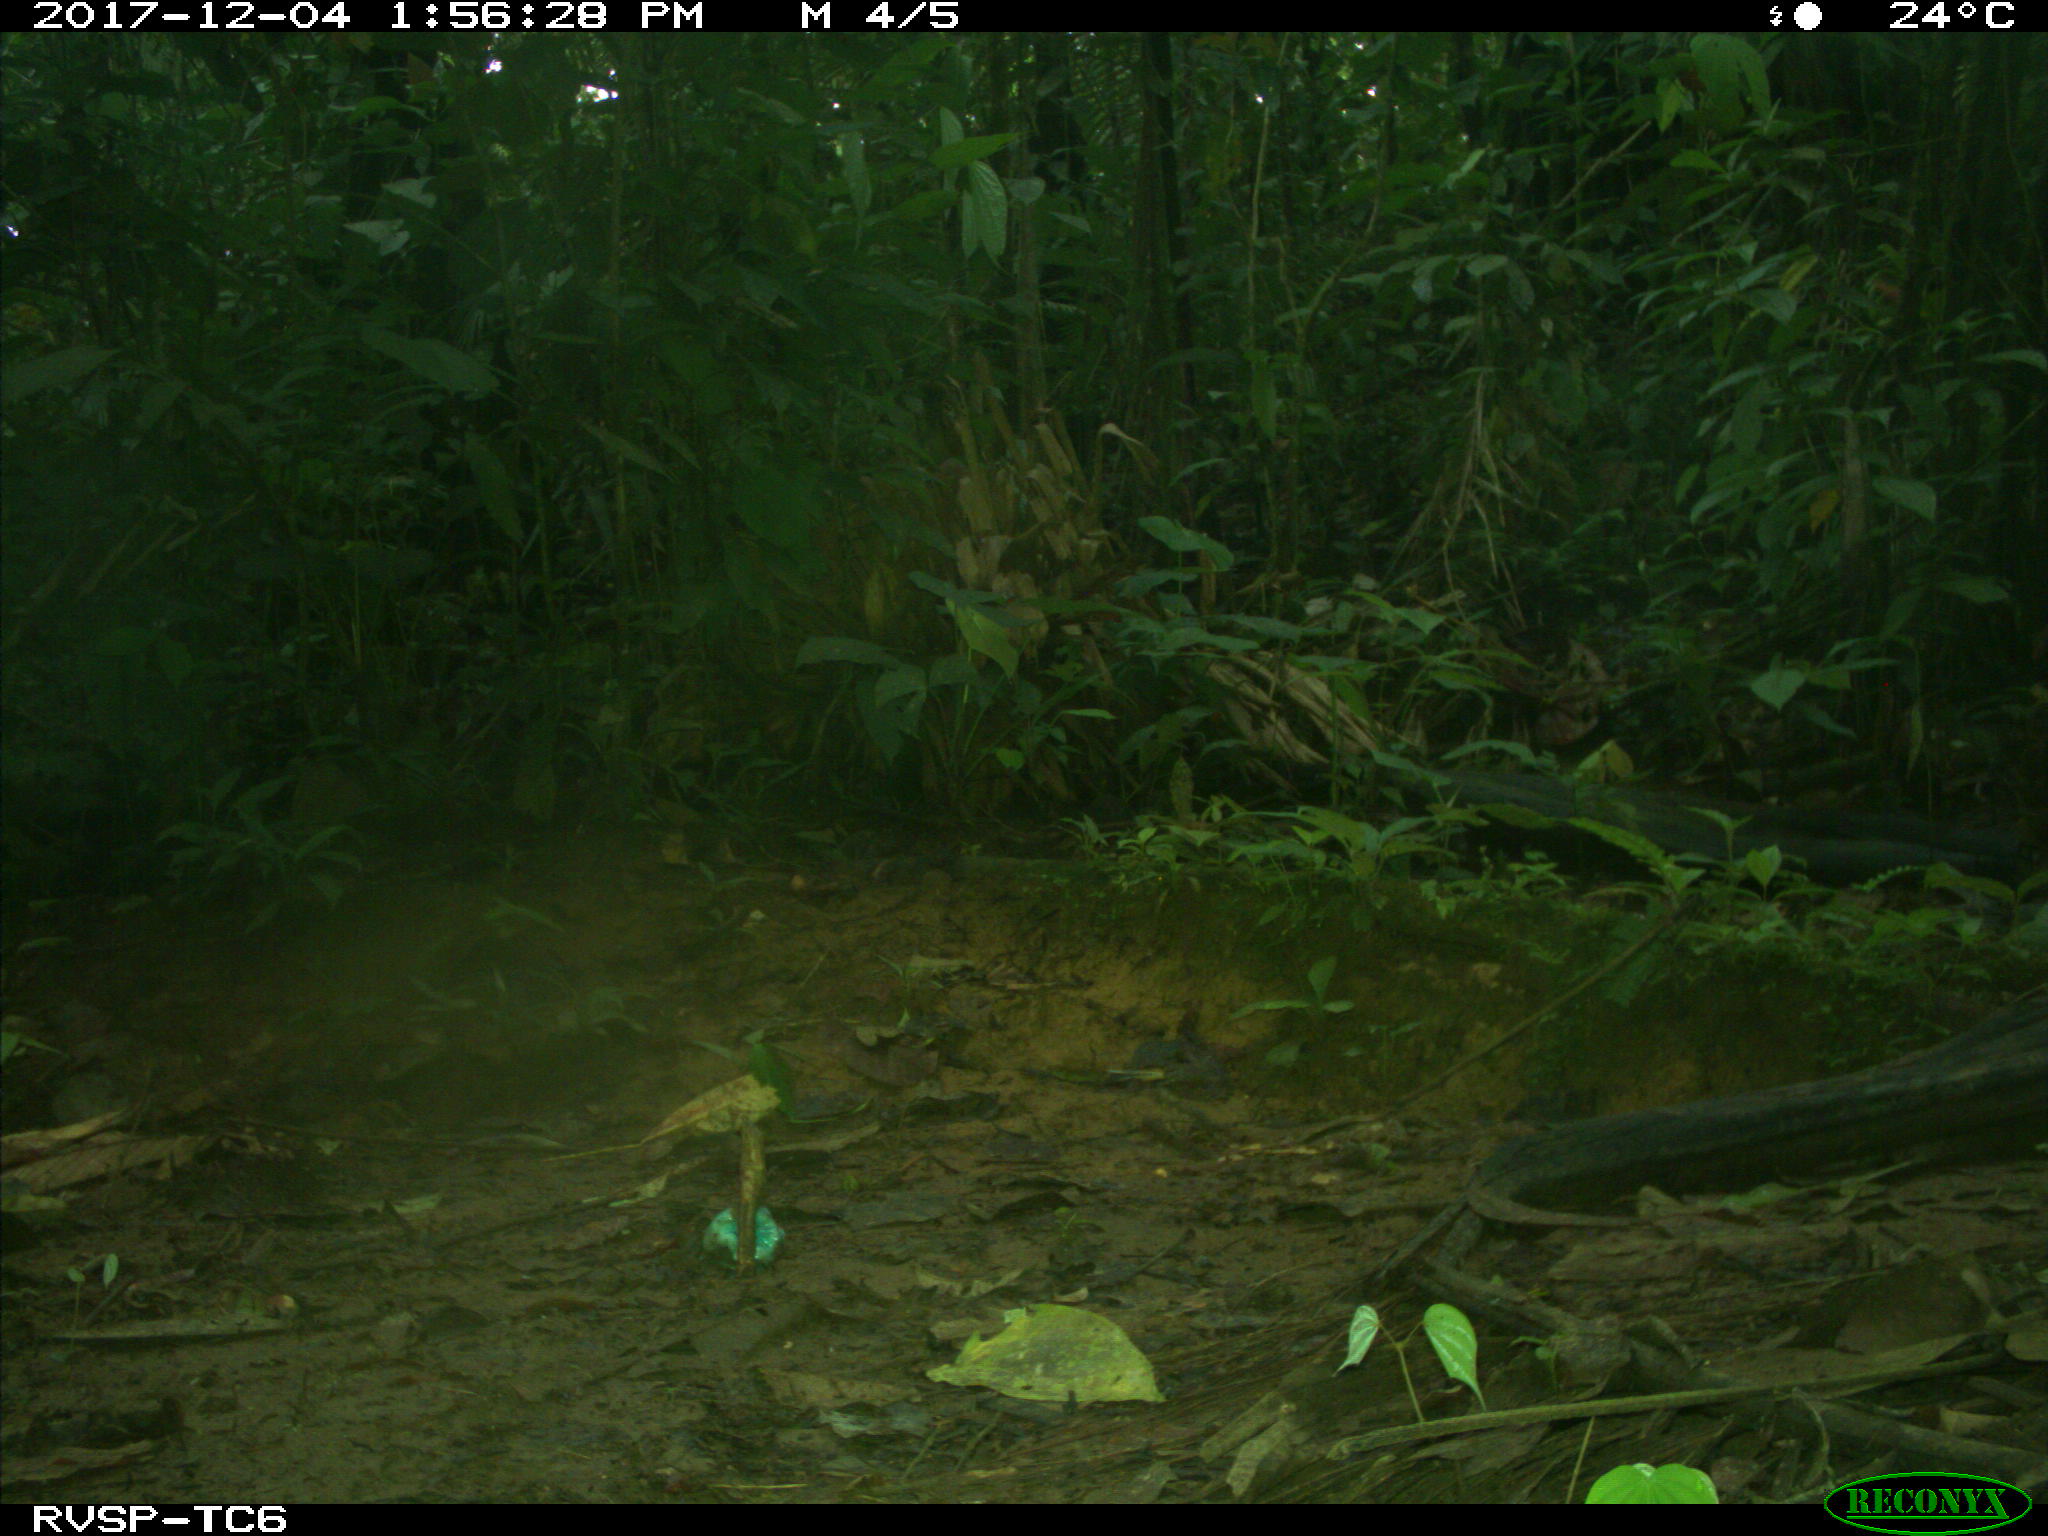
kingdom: Animalia
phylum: Chordata
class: Mammalia
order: Rodentia
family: Sciuridae
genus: Sciurus
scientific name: Sciurus granatensis
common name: Red-tailed squirrel
